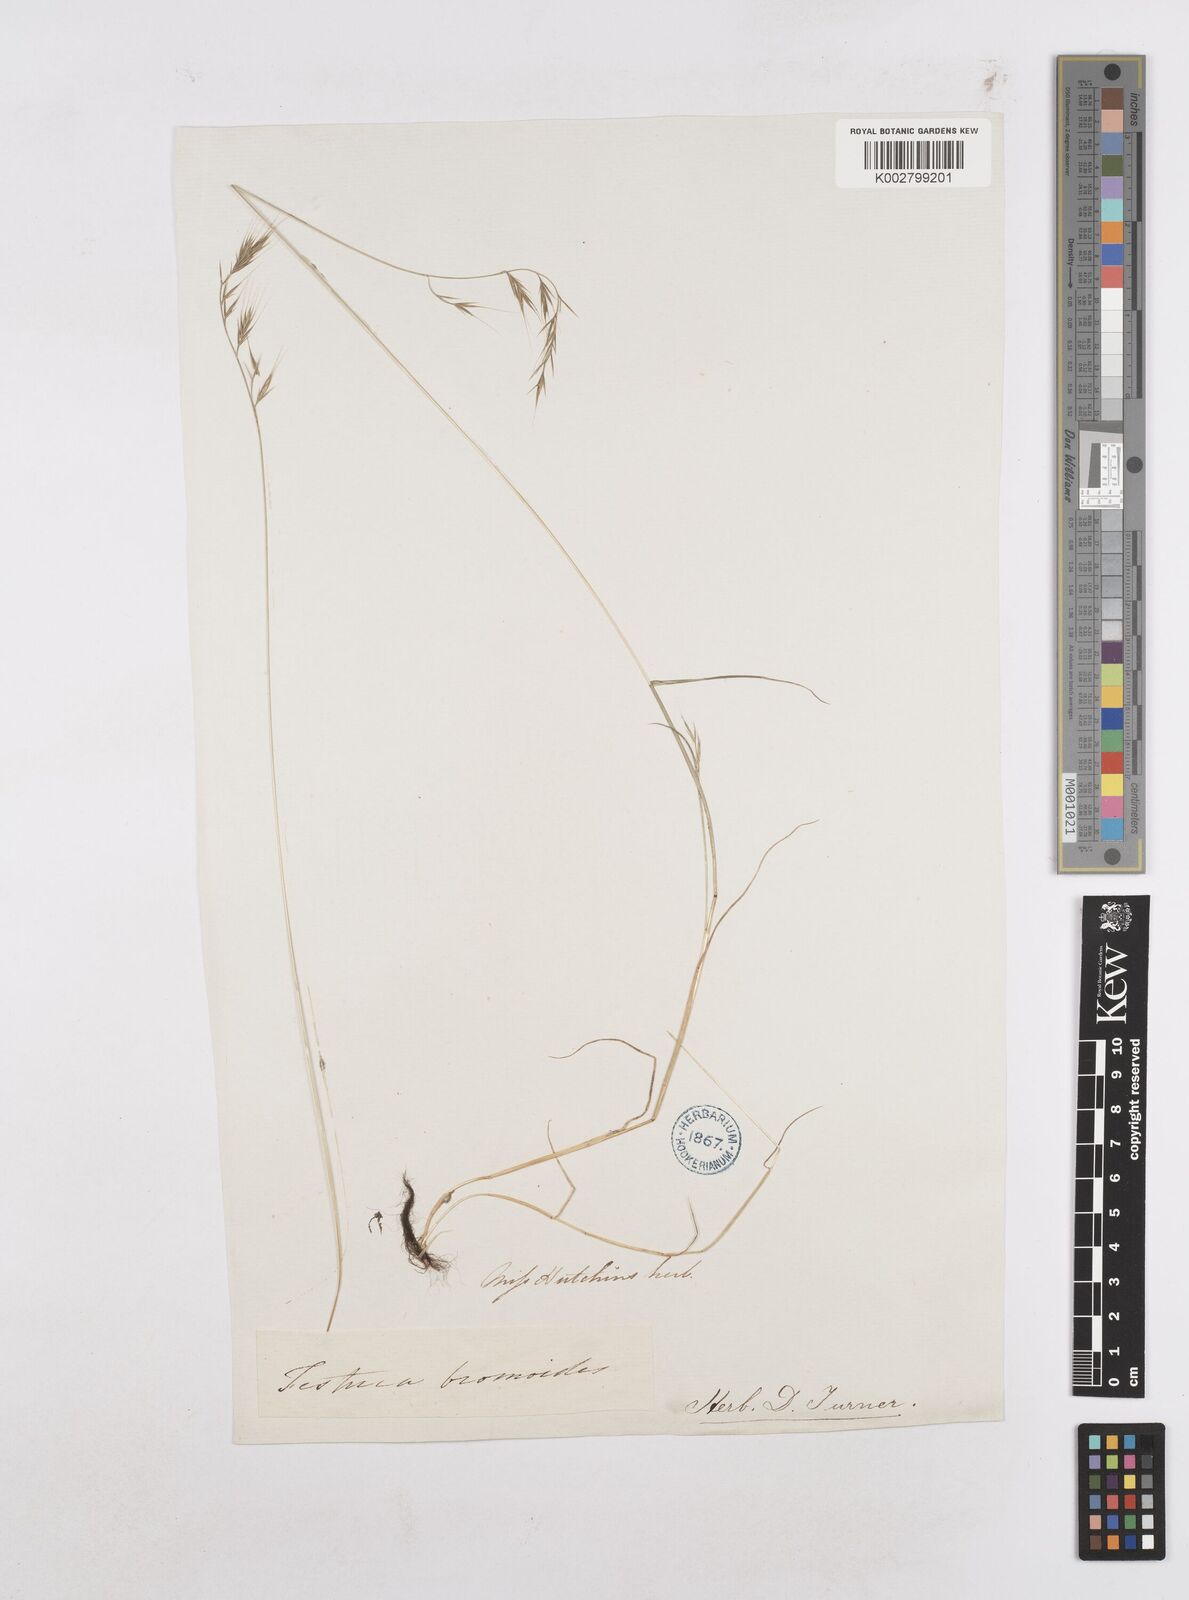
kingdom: Plantae
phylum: Tracheophyta
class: Liliopsida
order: Poales
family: Poaceae
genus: Festuca
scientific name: Festuca bromoides
